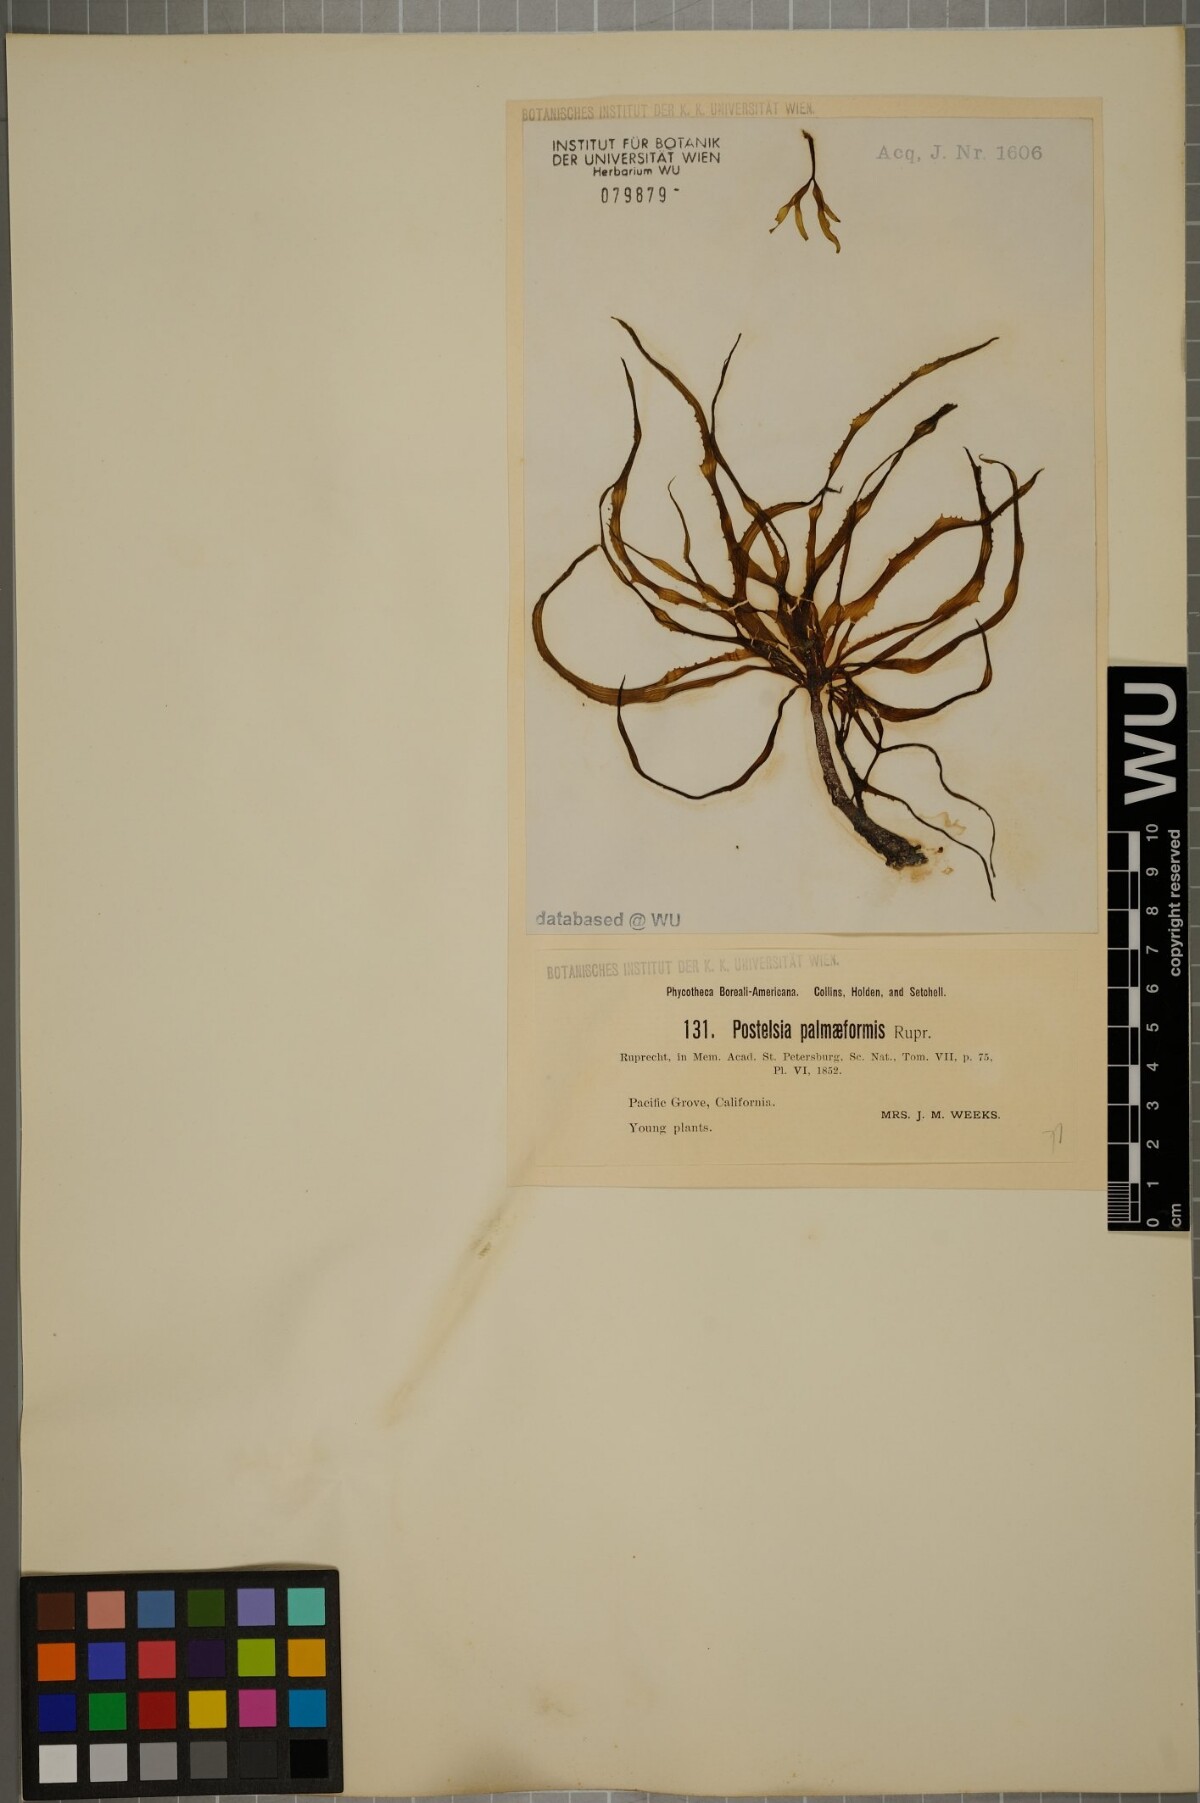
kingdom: Chromista
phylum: Ochrophyta
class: Phaeophyceae
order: Laminariales
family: Laminariaceae
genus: Postelsia
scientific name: Postelsia palmaeformis
